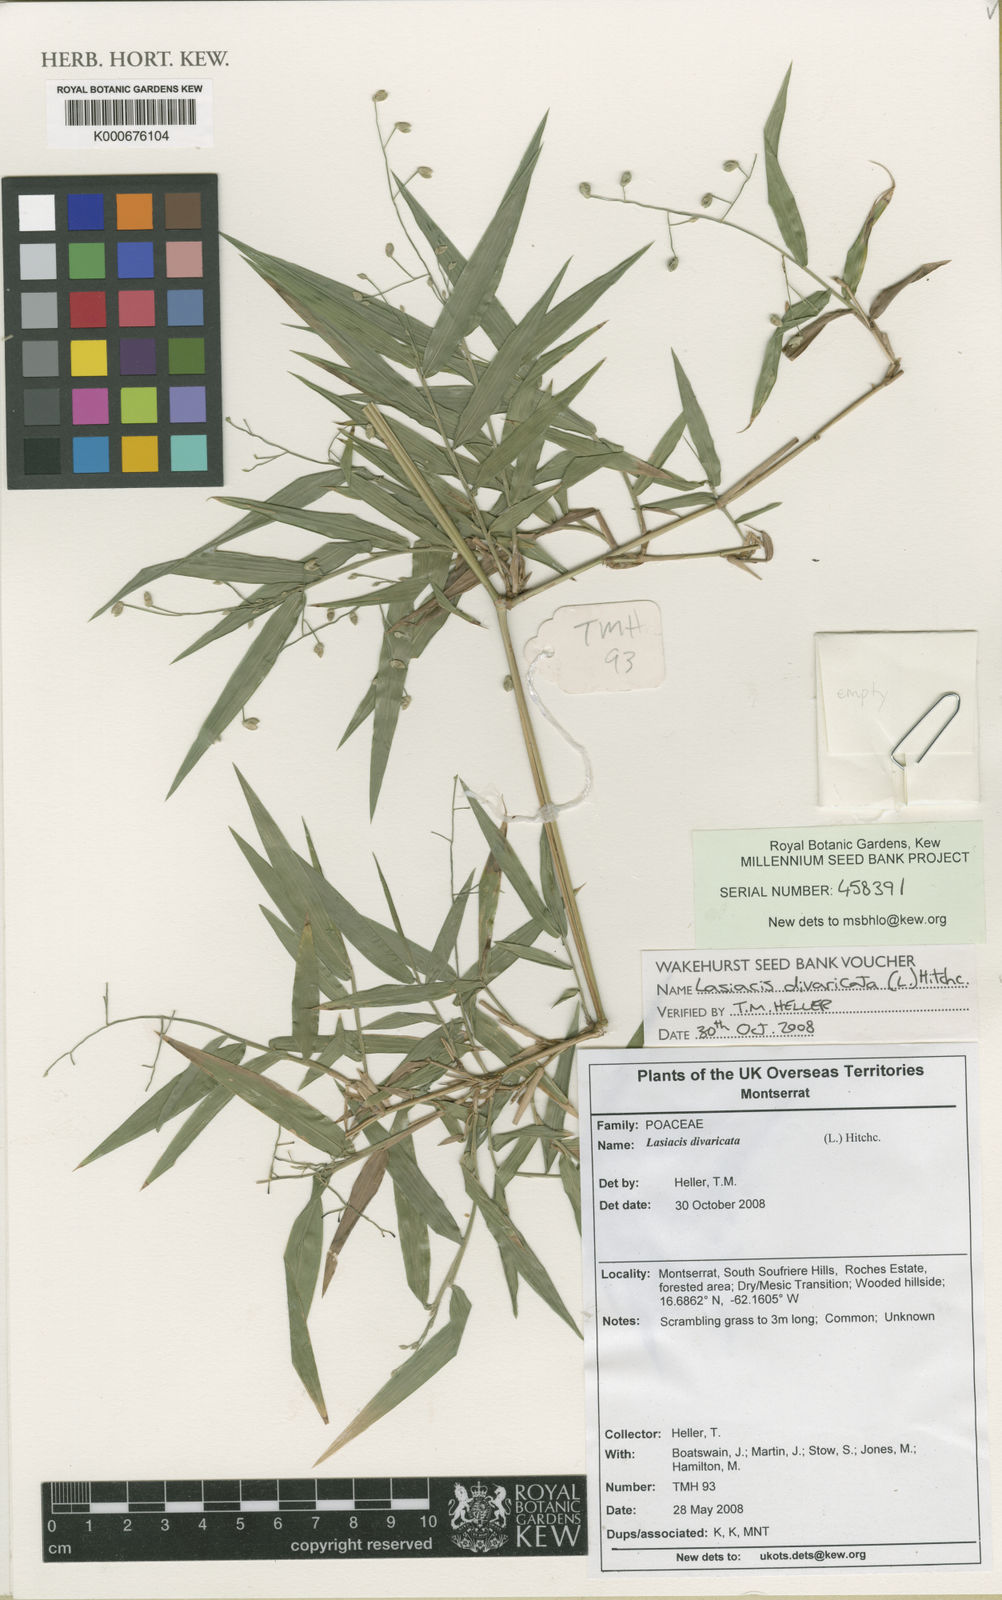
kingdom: Plantae
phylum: Tracheophyta
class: Liliopsida
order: Poales
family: Poaceae
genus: Lasiacis
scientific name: Lasiacis divaricata
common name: Smallcane
